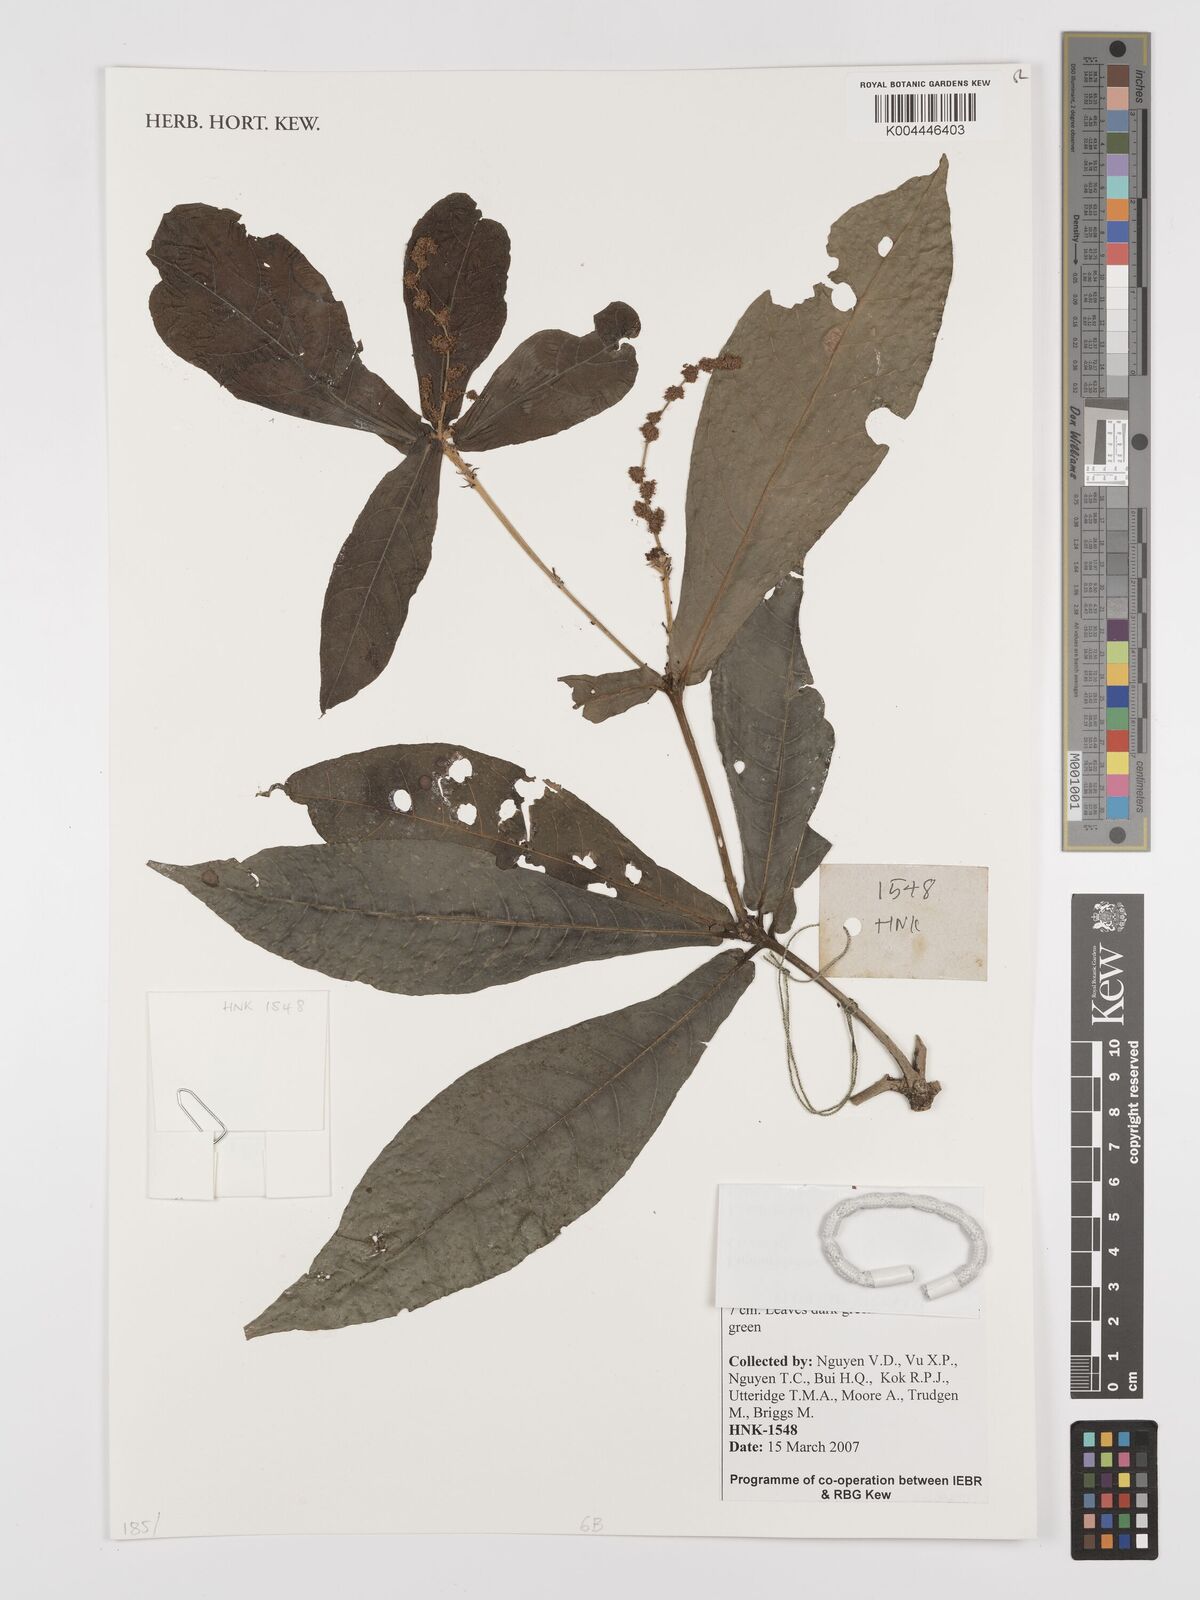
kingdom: Plantae
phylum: Tracheophyta
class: Magnoliopsida
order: Malpighiales
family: Euphorbiaceae
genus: Croton
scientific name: Croton
